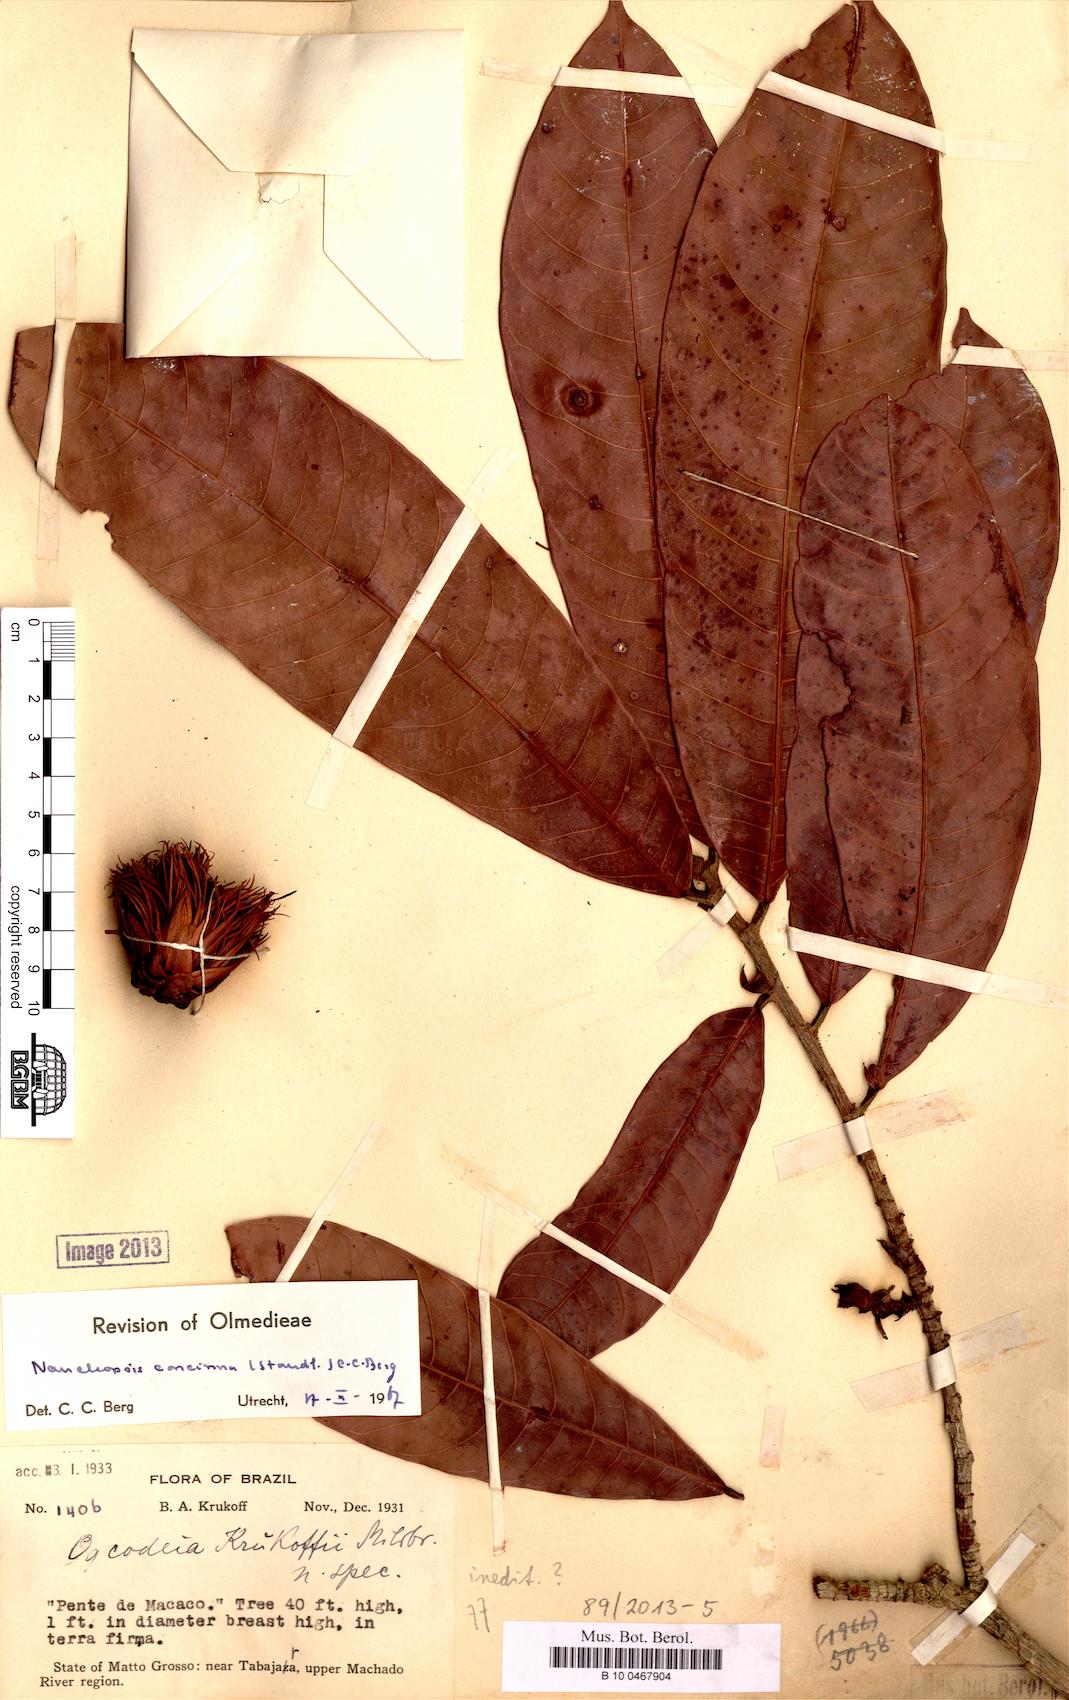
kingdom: Plantae
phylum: Tracheophyta
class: Magnoliopsida
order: Rosales
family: Moraceae
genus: Naucleopsis
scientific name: Naucleopsis concinna
